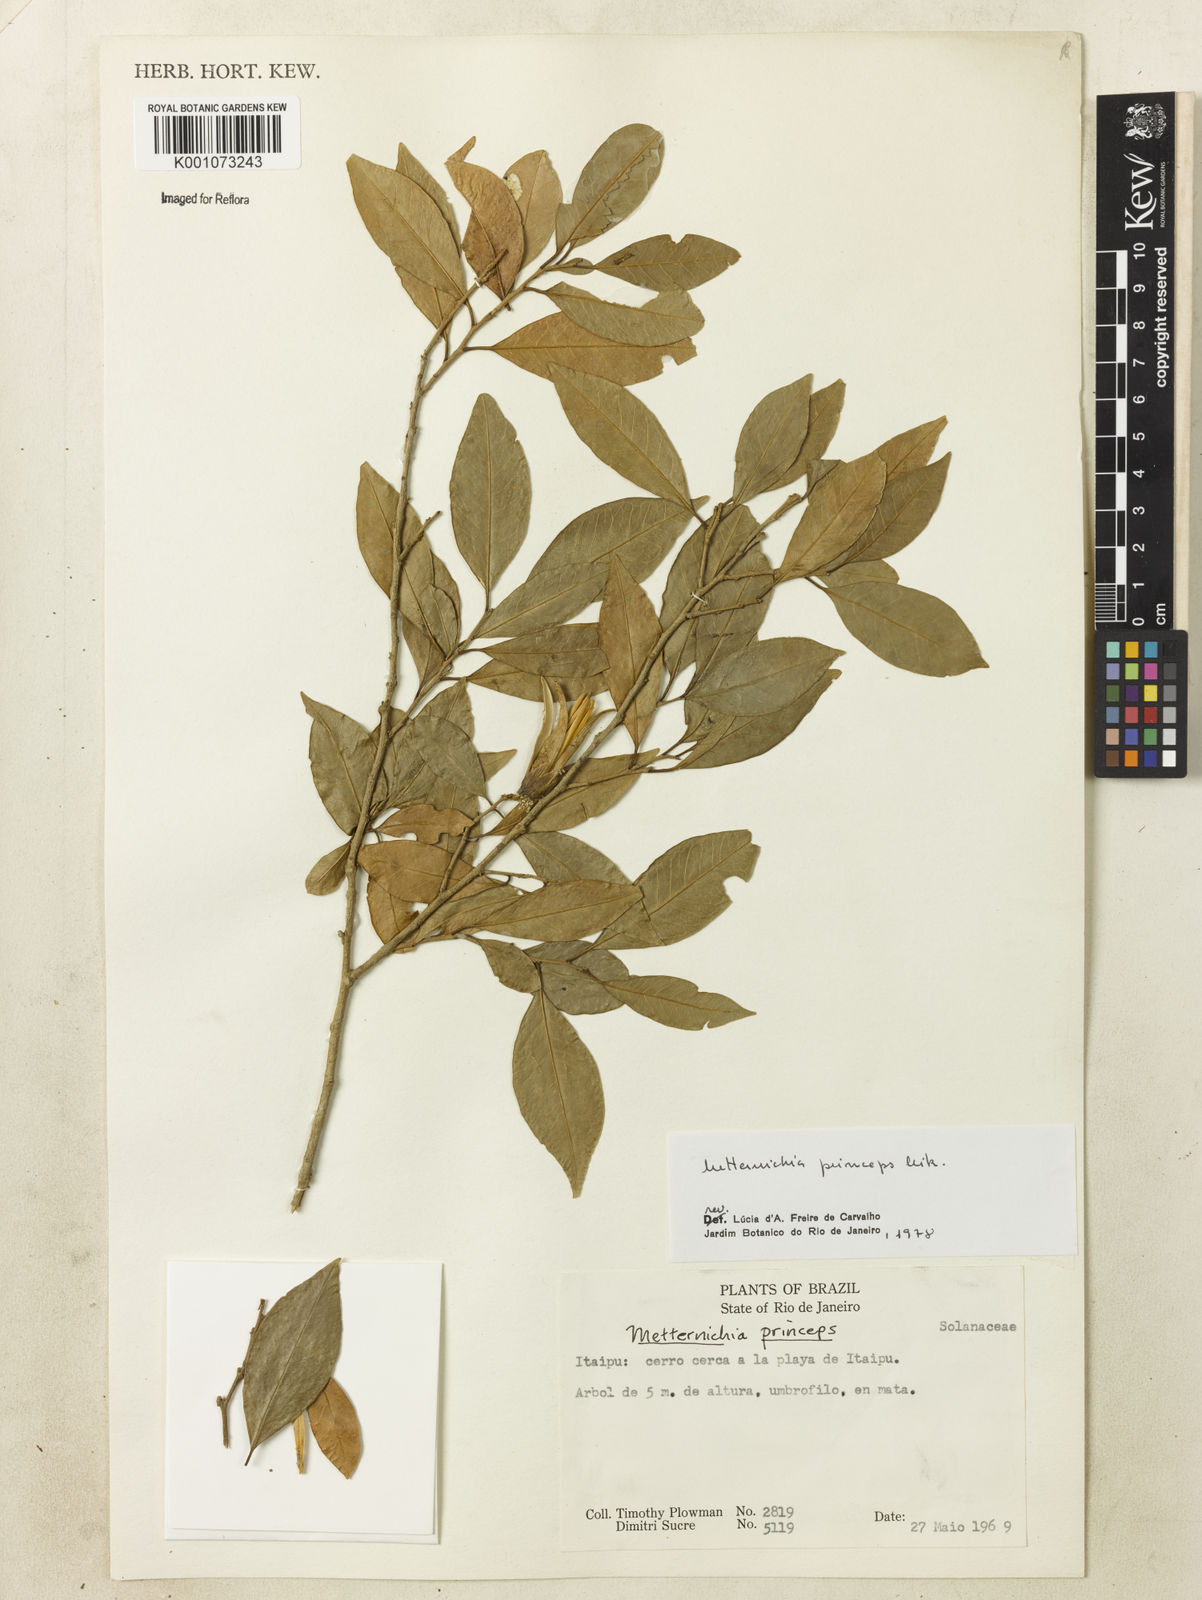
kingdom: Plantae
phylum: Tracheophyta
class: Magnoliopsida
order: Solanales
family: Solanaceae
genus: Metternichia
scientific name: Metternichia
